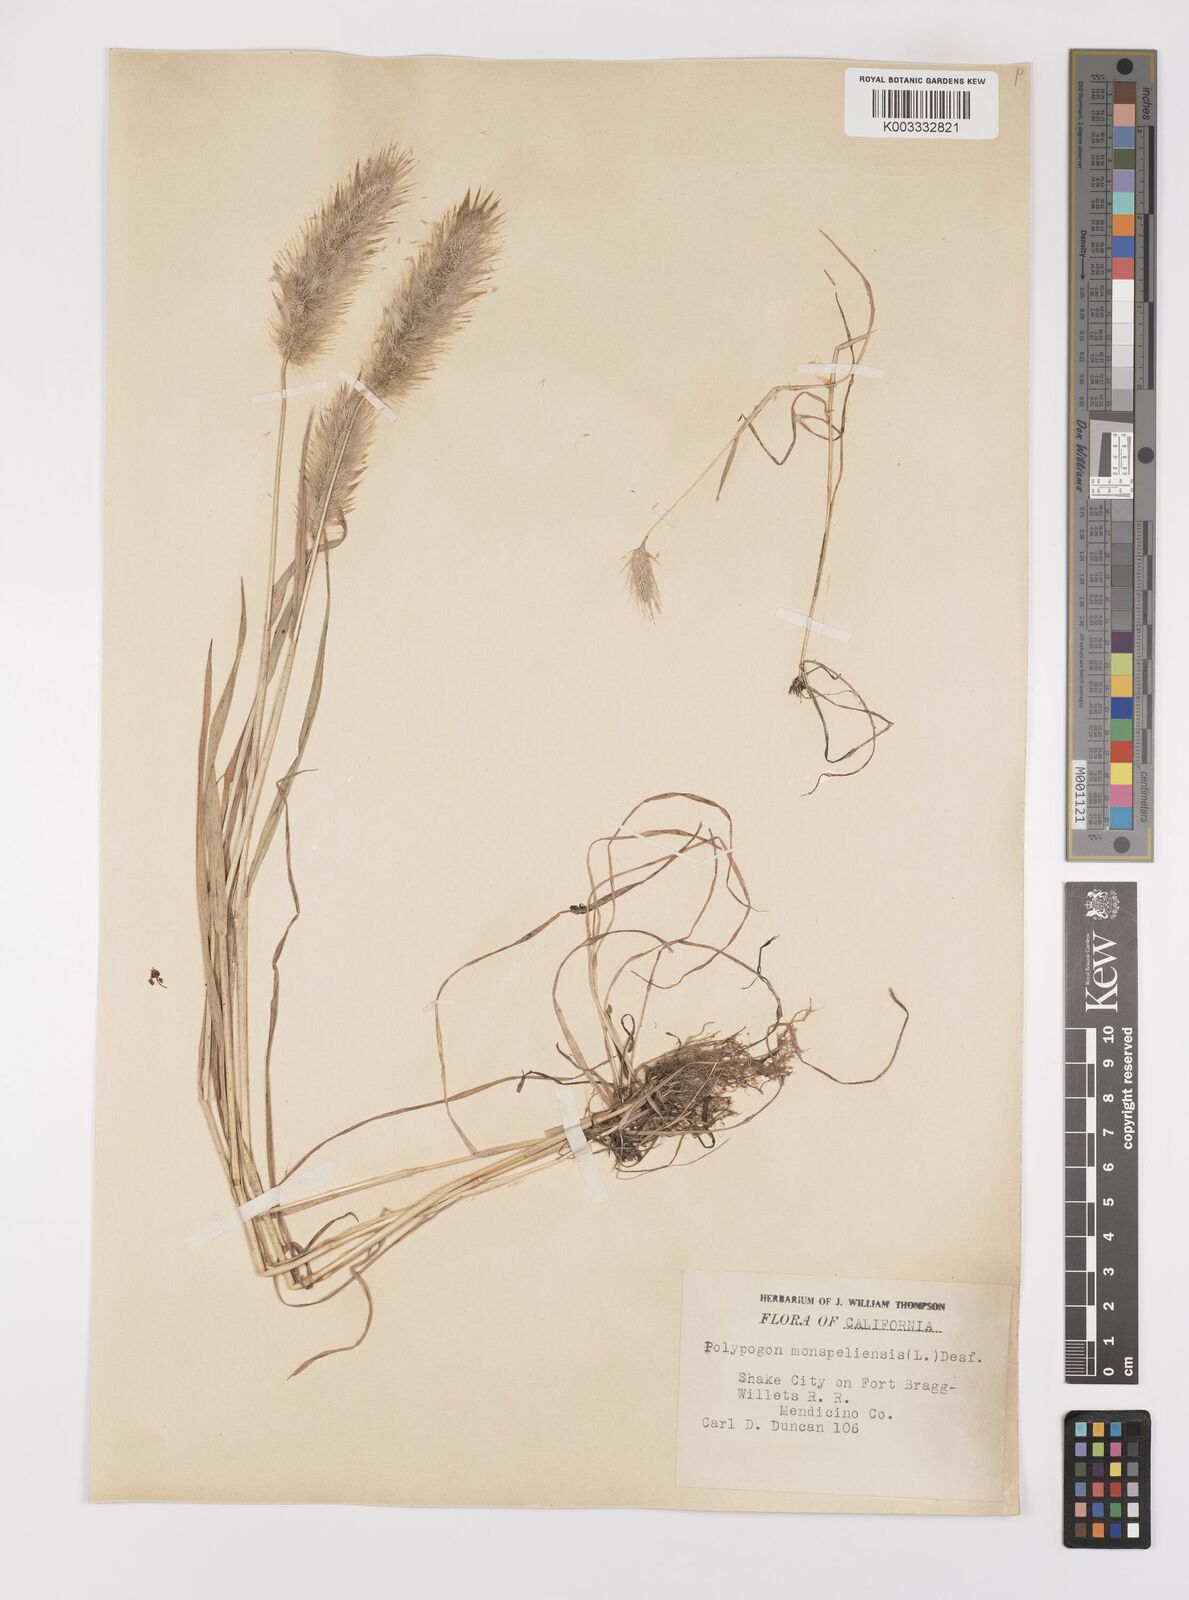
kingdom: Plantae
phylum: Tracheophyta
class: Liliopsida
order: Poales
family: Poaceae
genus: Polypogon
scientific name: Polypogon monspeliensis
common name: Annual rabbitsfoot grass
